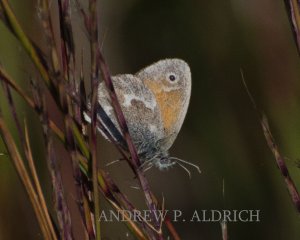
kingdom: Animalia
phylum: Arthropoda
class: Insecta
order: Lepidoptera
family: Nymphalidae
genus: Coenonympha
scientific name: Coenonympha tullia
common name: Large Heath
